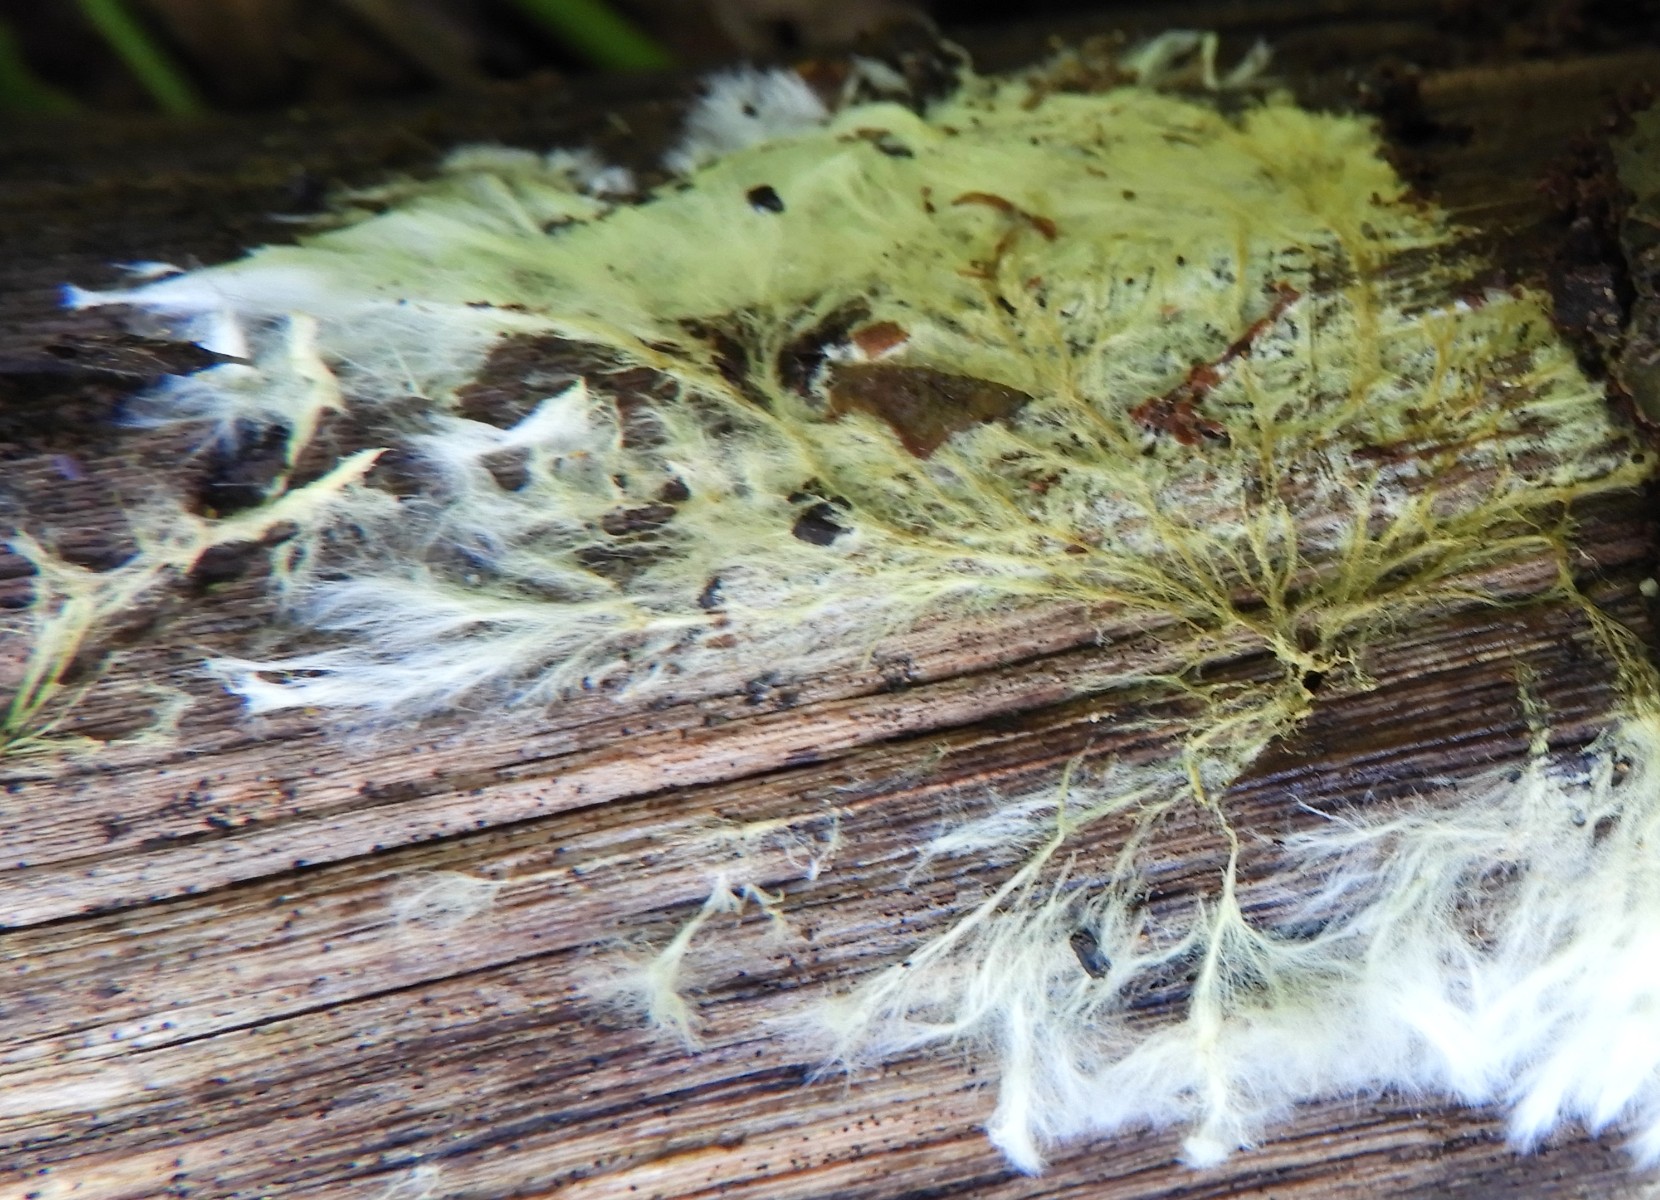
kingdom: Fungi
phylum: Basidiomycota
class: Agaricomycetes
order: Russulales
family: Xenasmataceae
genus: Xenasmatella
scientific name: Xenasmatella vaga
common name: svovl-strenghinde
